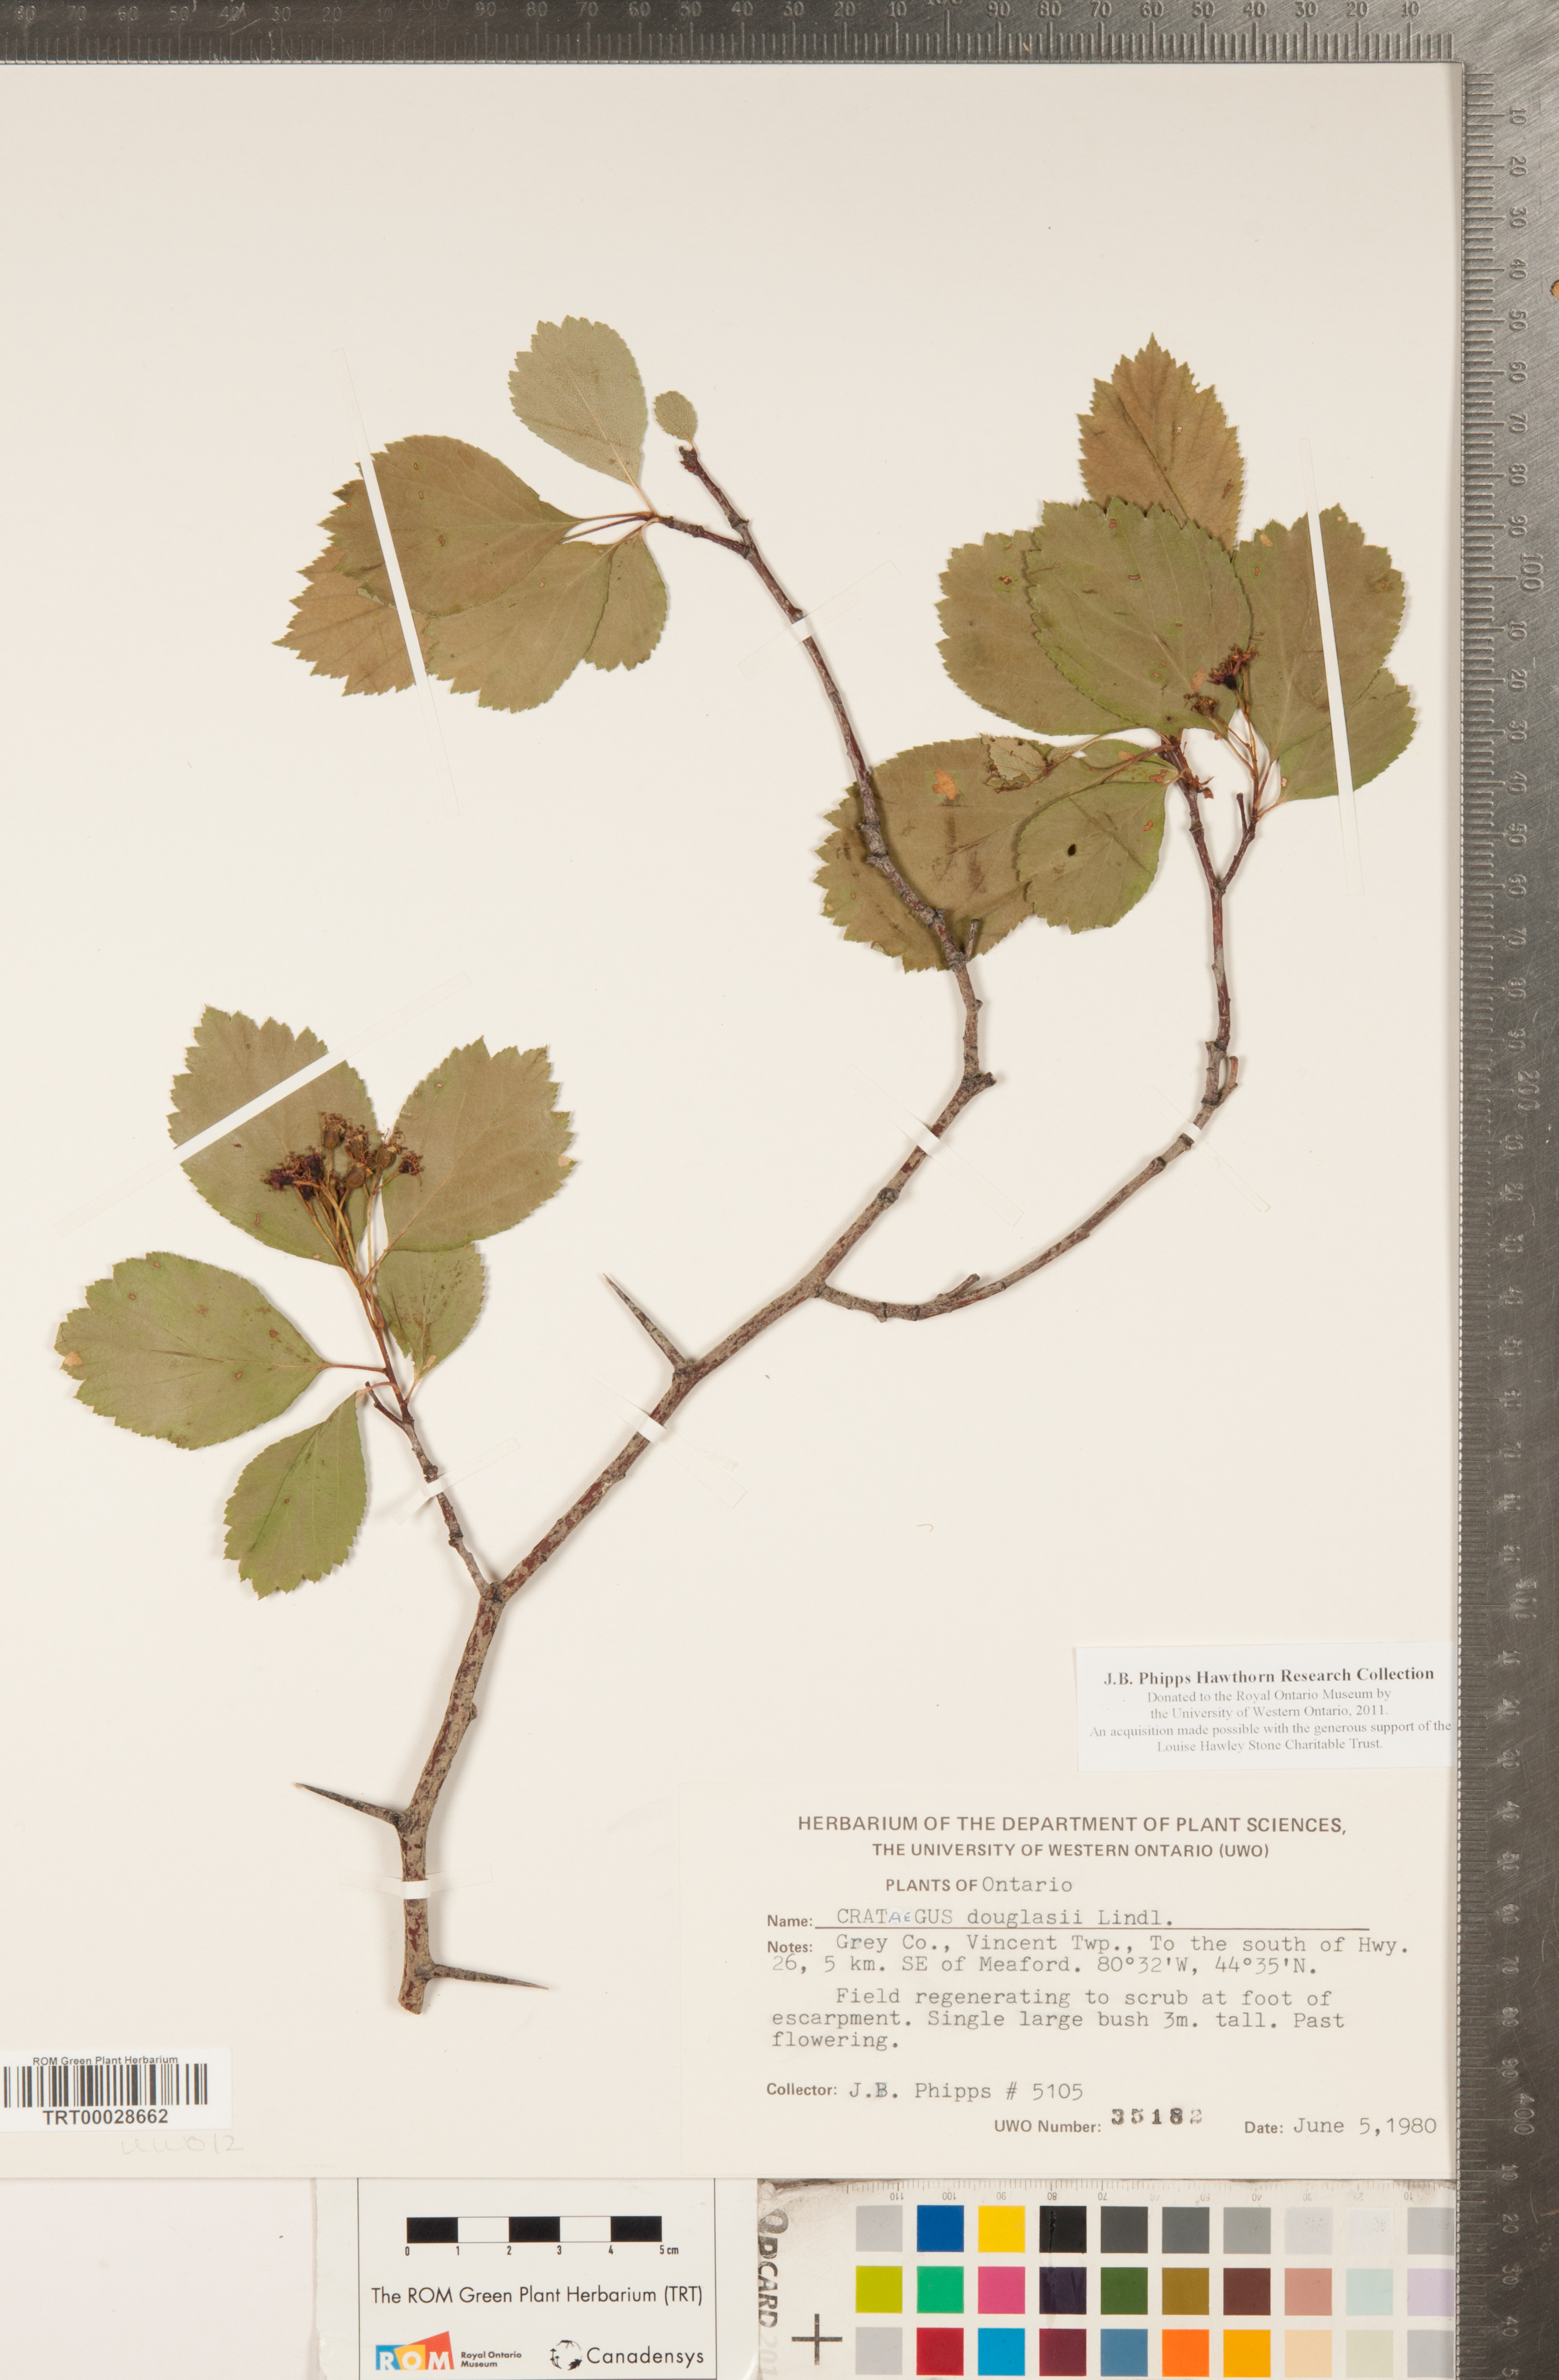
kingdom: Plantae
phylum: Tracheophyta
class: Magnoliopsida
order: Rosales
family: Rosaceae
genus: Crataegus
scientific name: Crataegus douglasii
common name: Black hawthorn
